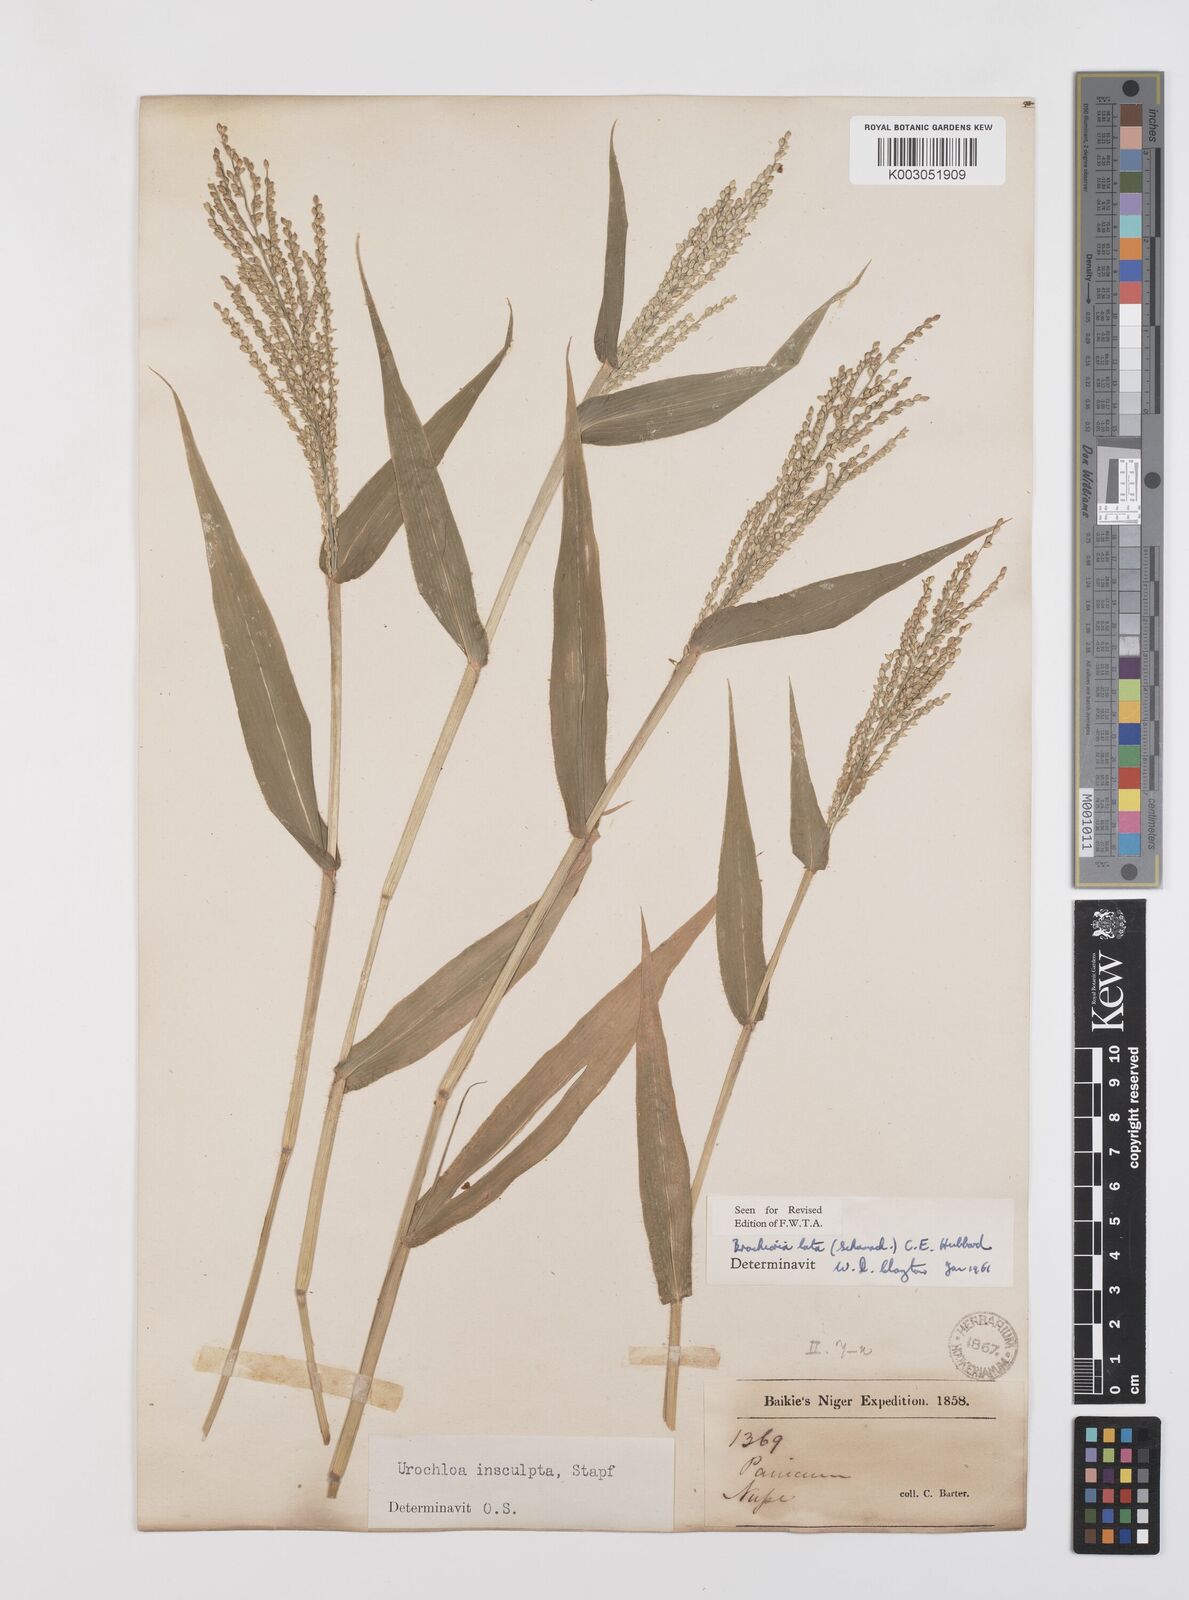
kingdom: Plantae
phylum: Tracheophyta
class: Liliopsida
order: Poales
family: Poaceae
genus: Urochloa
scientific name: Urochloa lata
